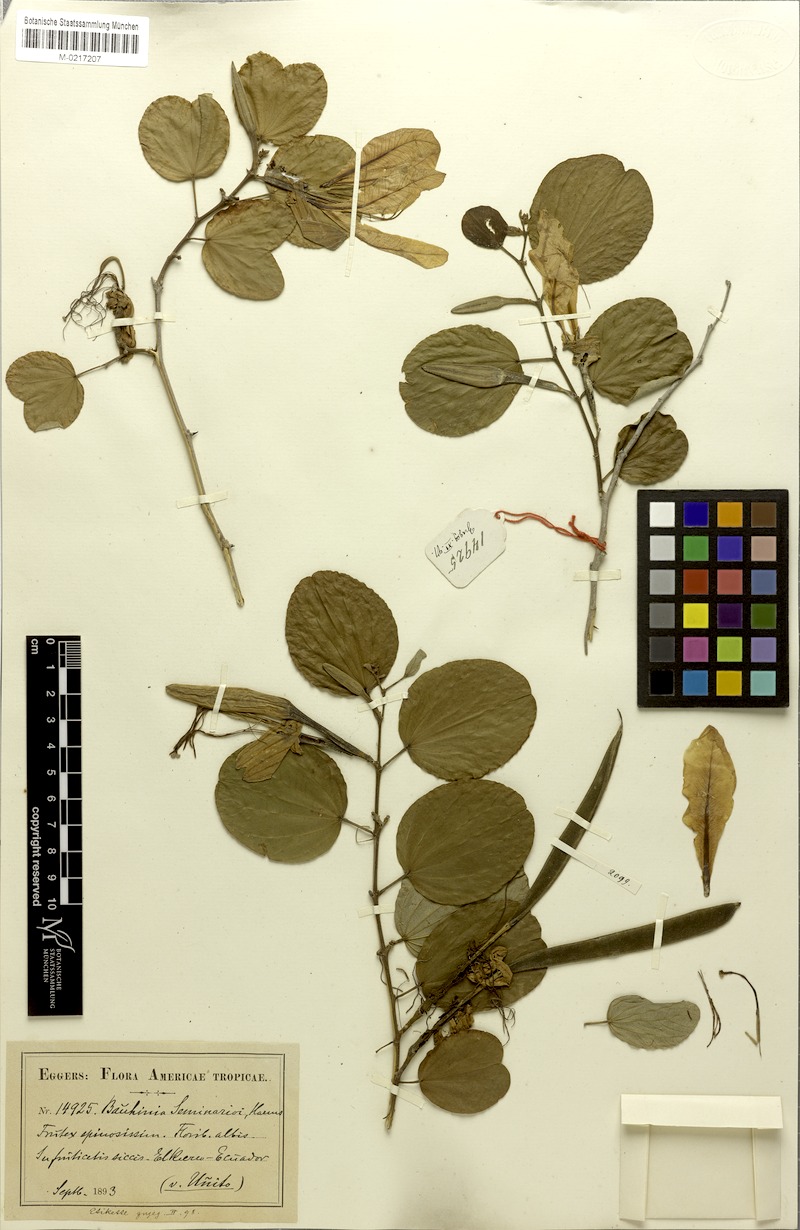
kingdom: Plantae
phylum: Tracheophyta
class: Magnoliopsida
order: Fabales
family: Fabaceae
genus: Bauhinia
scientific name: Bauhinia seminarioi
